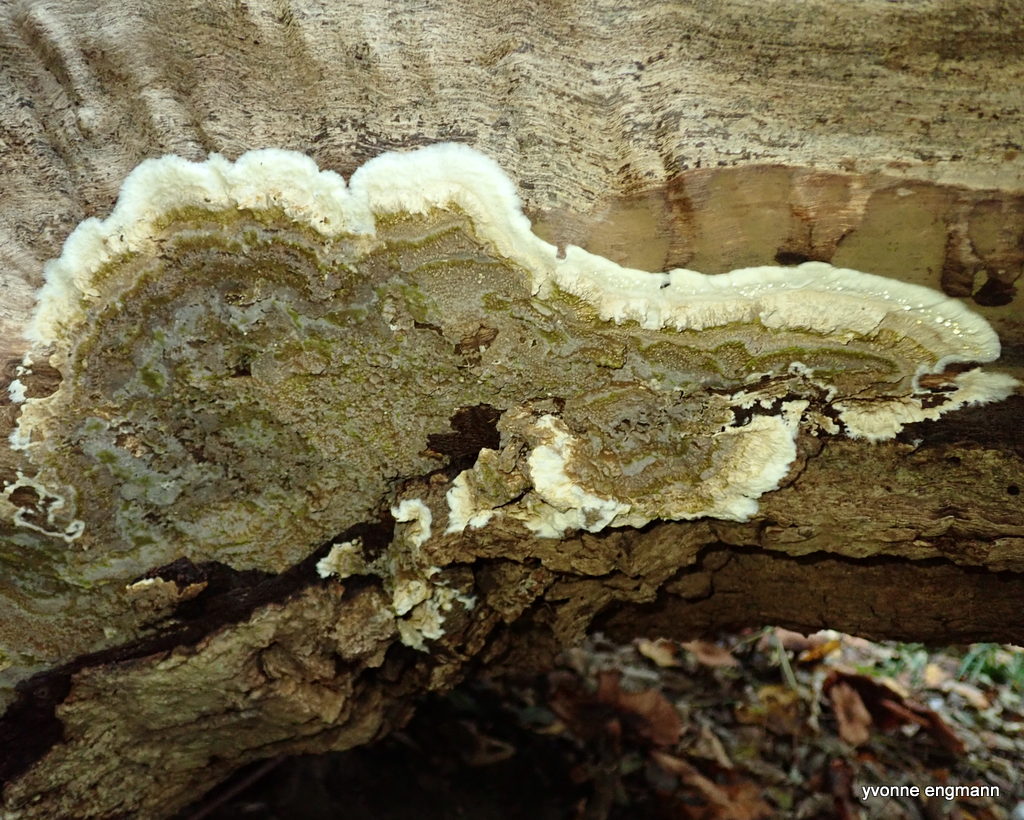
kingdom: Fungi
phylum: Basidiomycota
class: Agaricomycetes
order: Boletales
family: Coniophoraceae
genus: Coniophora
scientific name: Coniophora puteana
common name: gul tømmersvamp
